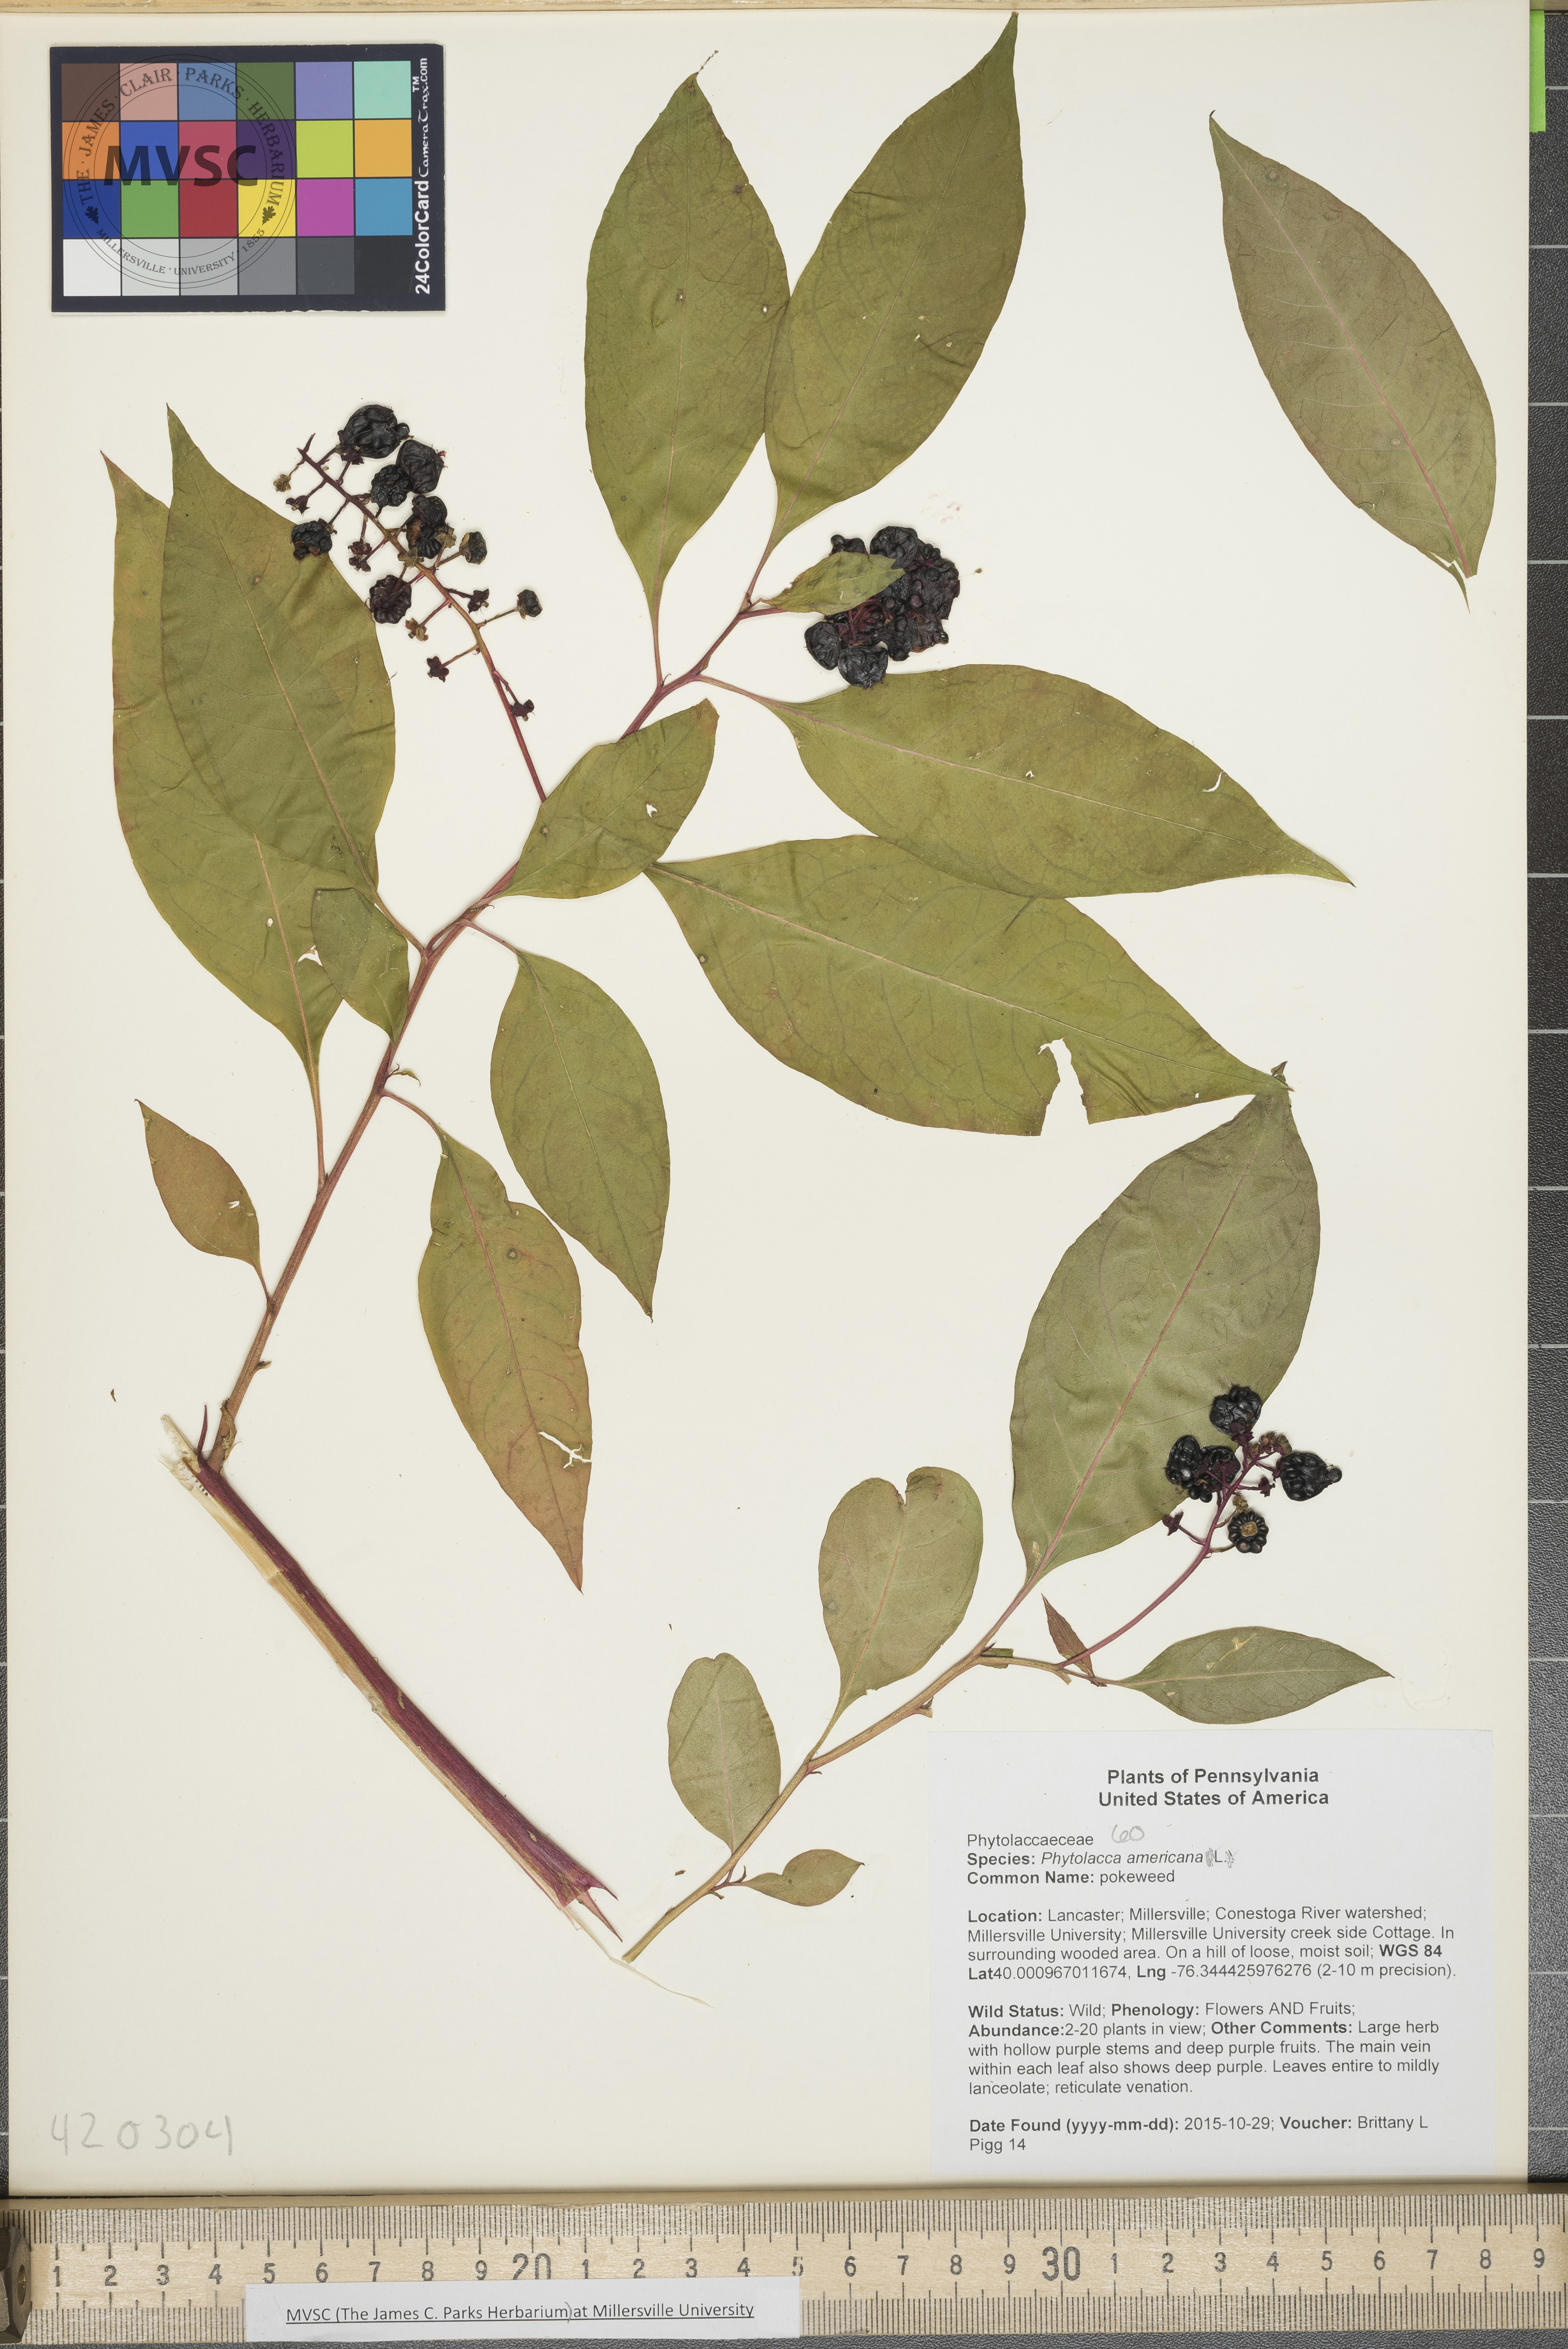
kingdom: Plantae
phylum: Tracheophyta
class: Magnoliopsida
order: Caryophyllales
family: Phytolaccaceae
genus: Phytolacca
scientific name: Phytolacca americana
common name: pokeweed
